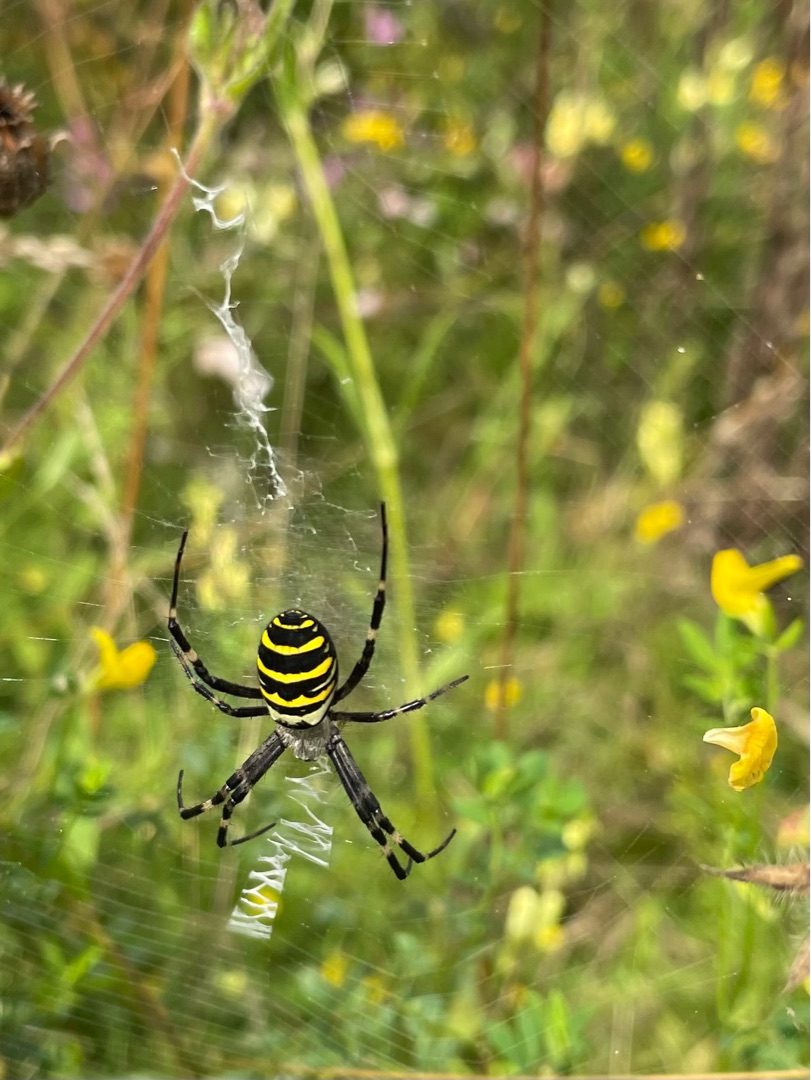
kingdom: Animalia
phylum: Arthropoda
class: Arachnida
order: Araneae
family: Araneidae
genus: Argiope
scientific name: Argiope bruennichi
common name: Hvepseedderkop
